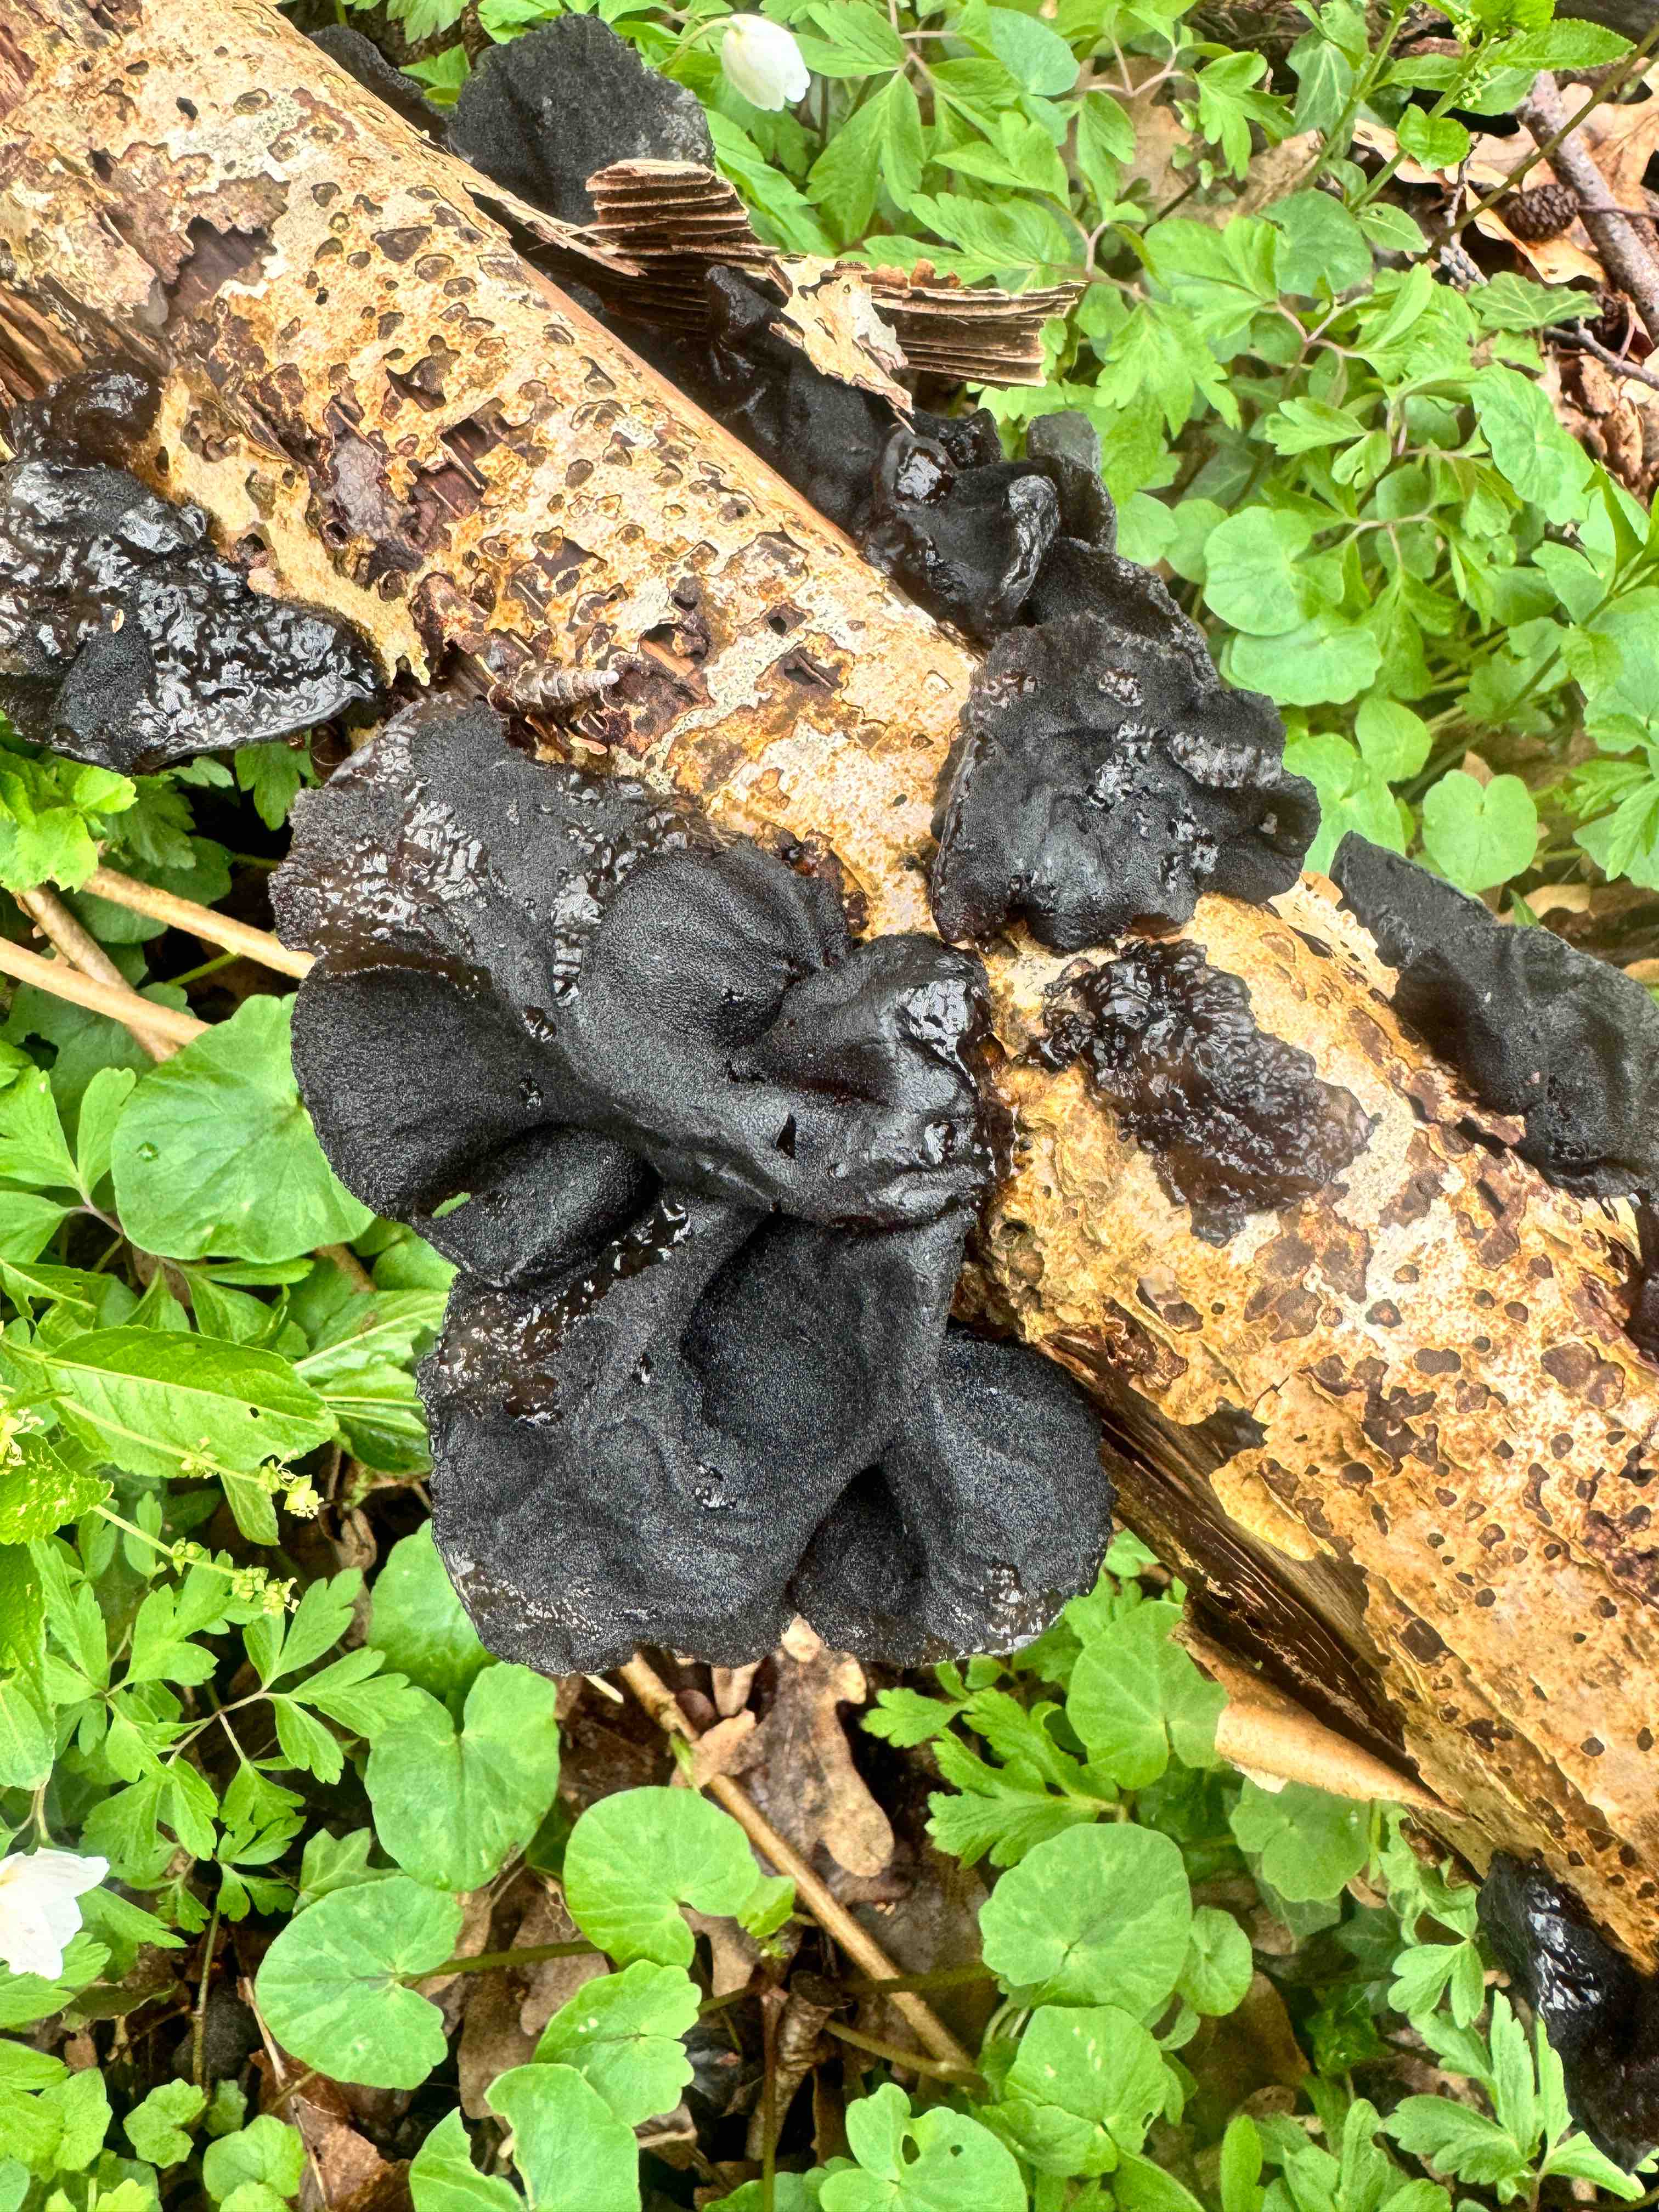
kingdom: Fungi
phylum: Basidiomycota
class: Agaricomycetes
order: Auriculariales
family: Auriculariaceae
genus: Exidia
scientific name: Exidia glandulosa
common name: ege-bævretop
